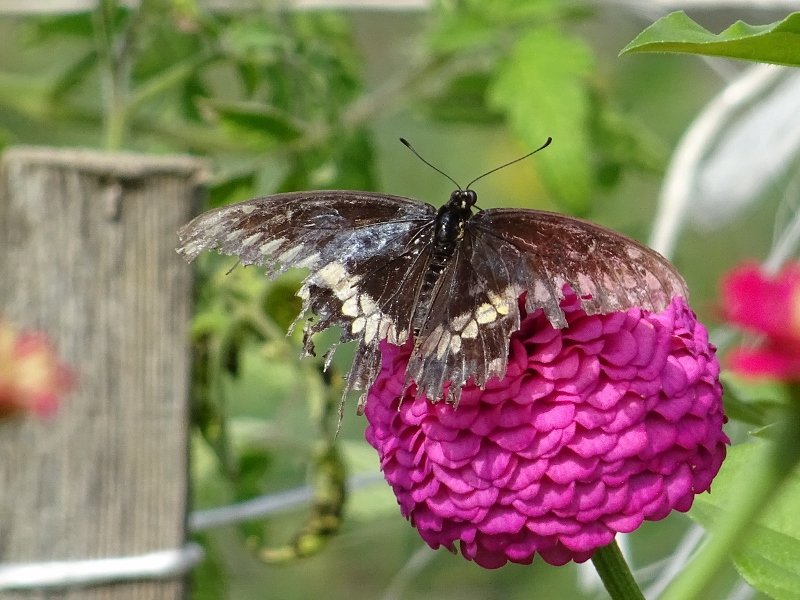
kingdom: Animalia
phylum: Arthropoda
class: Insecta
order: Lepidoptera
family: Papilionidae
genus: Papilio
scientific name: Papilio polyxenes
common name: Black Swallowtail
